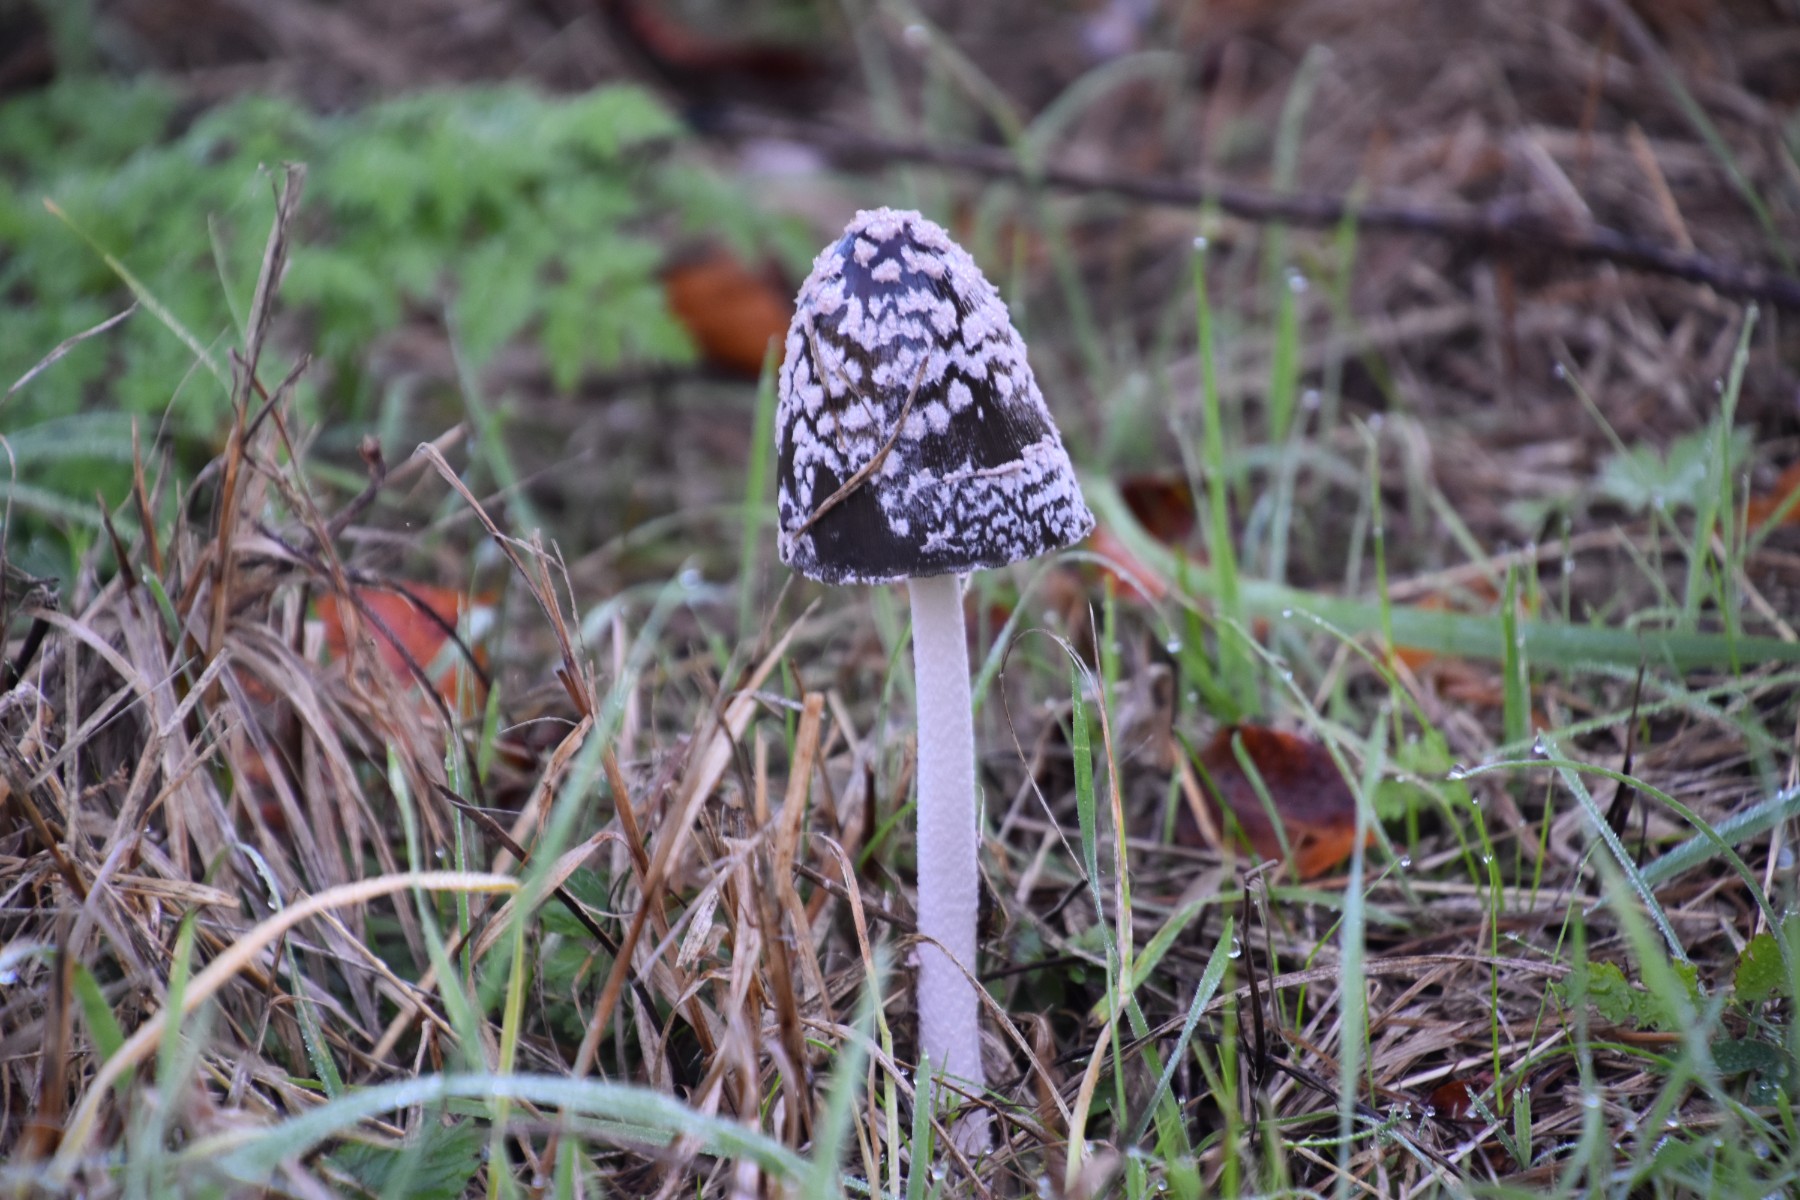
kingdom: Fungi
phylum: Basidiomycota
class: Agaricomycetes
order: Agaricales
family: Psathyrellaceae
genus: Coprinopsis
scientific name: Coprinopsis picacea
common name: skade-blækhat
